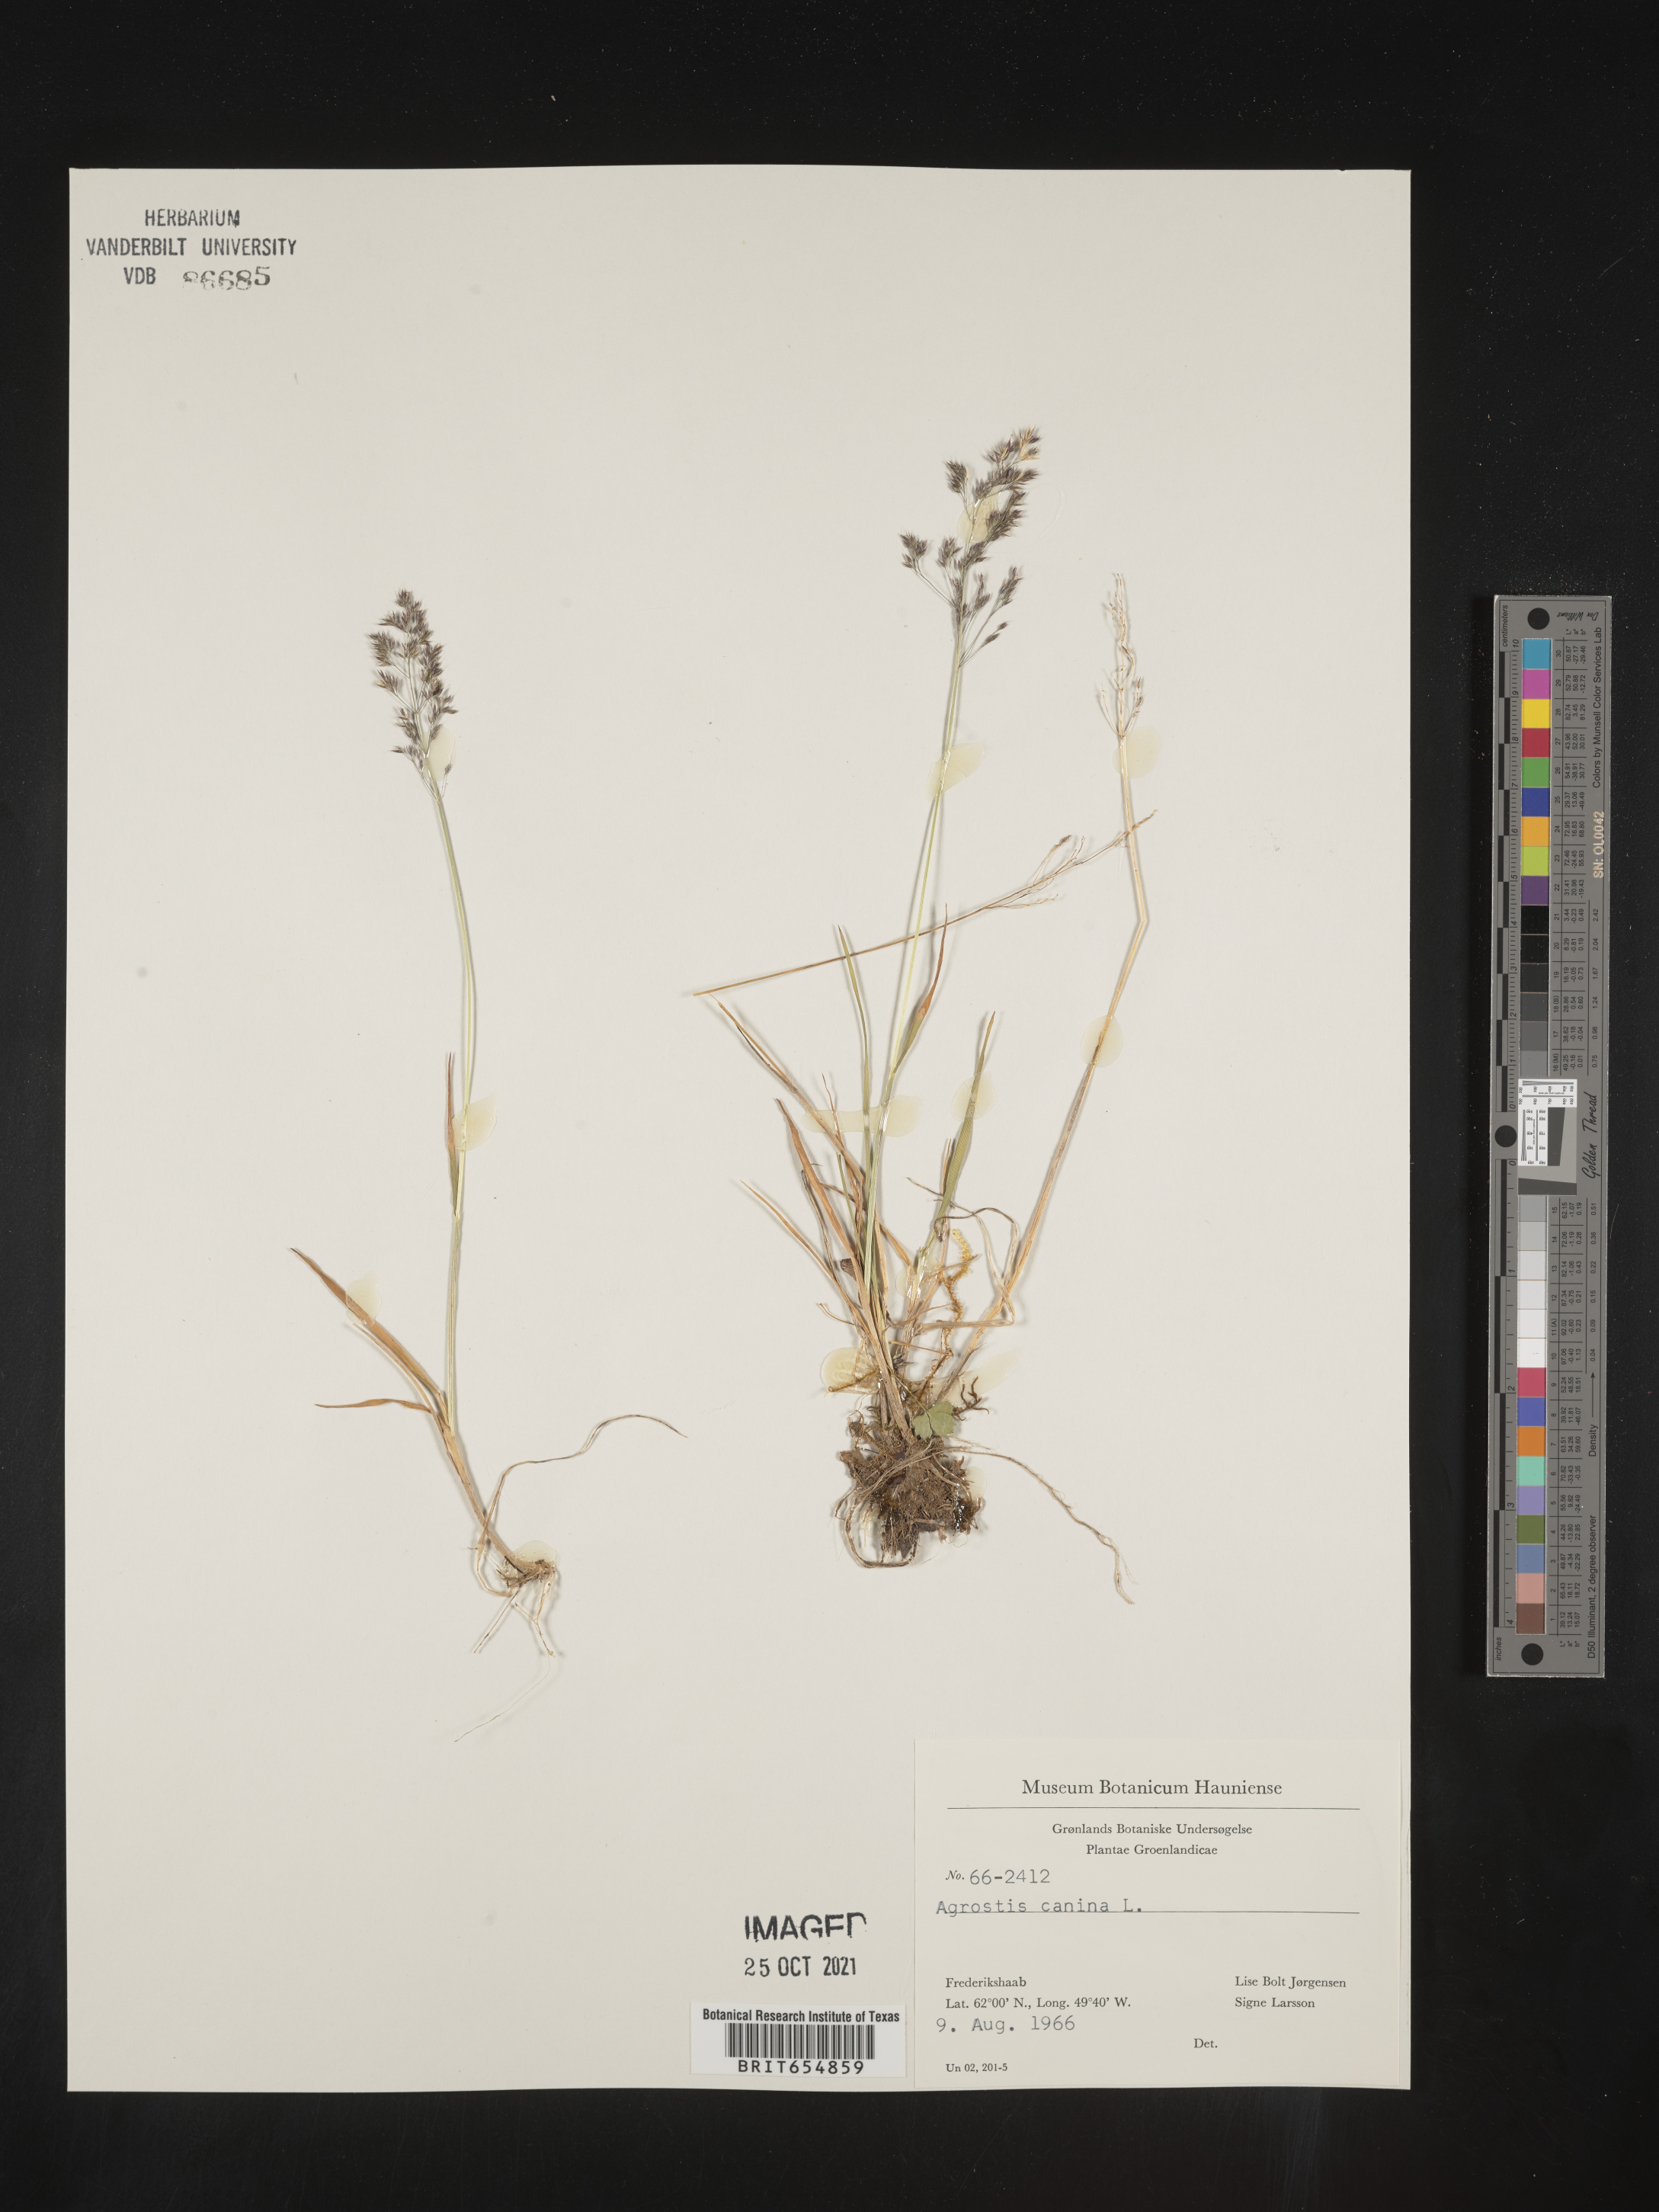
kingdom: Plantae
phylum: Tracheophyta
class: Liliopsida
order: Poales
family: Poaceae
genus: Agrostis
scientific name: Agrostis
